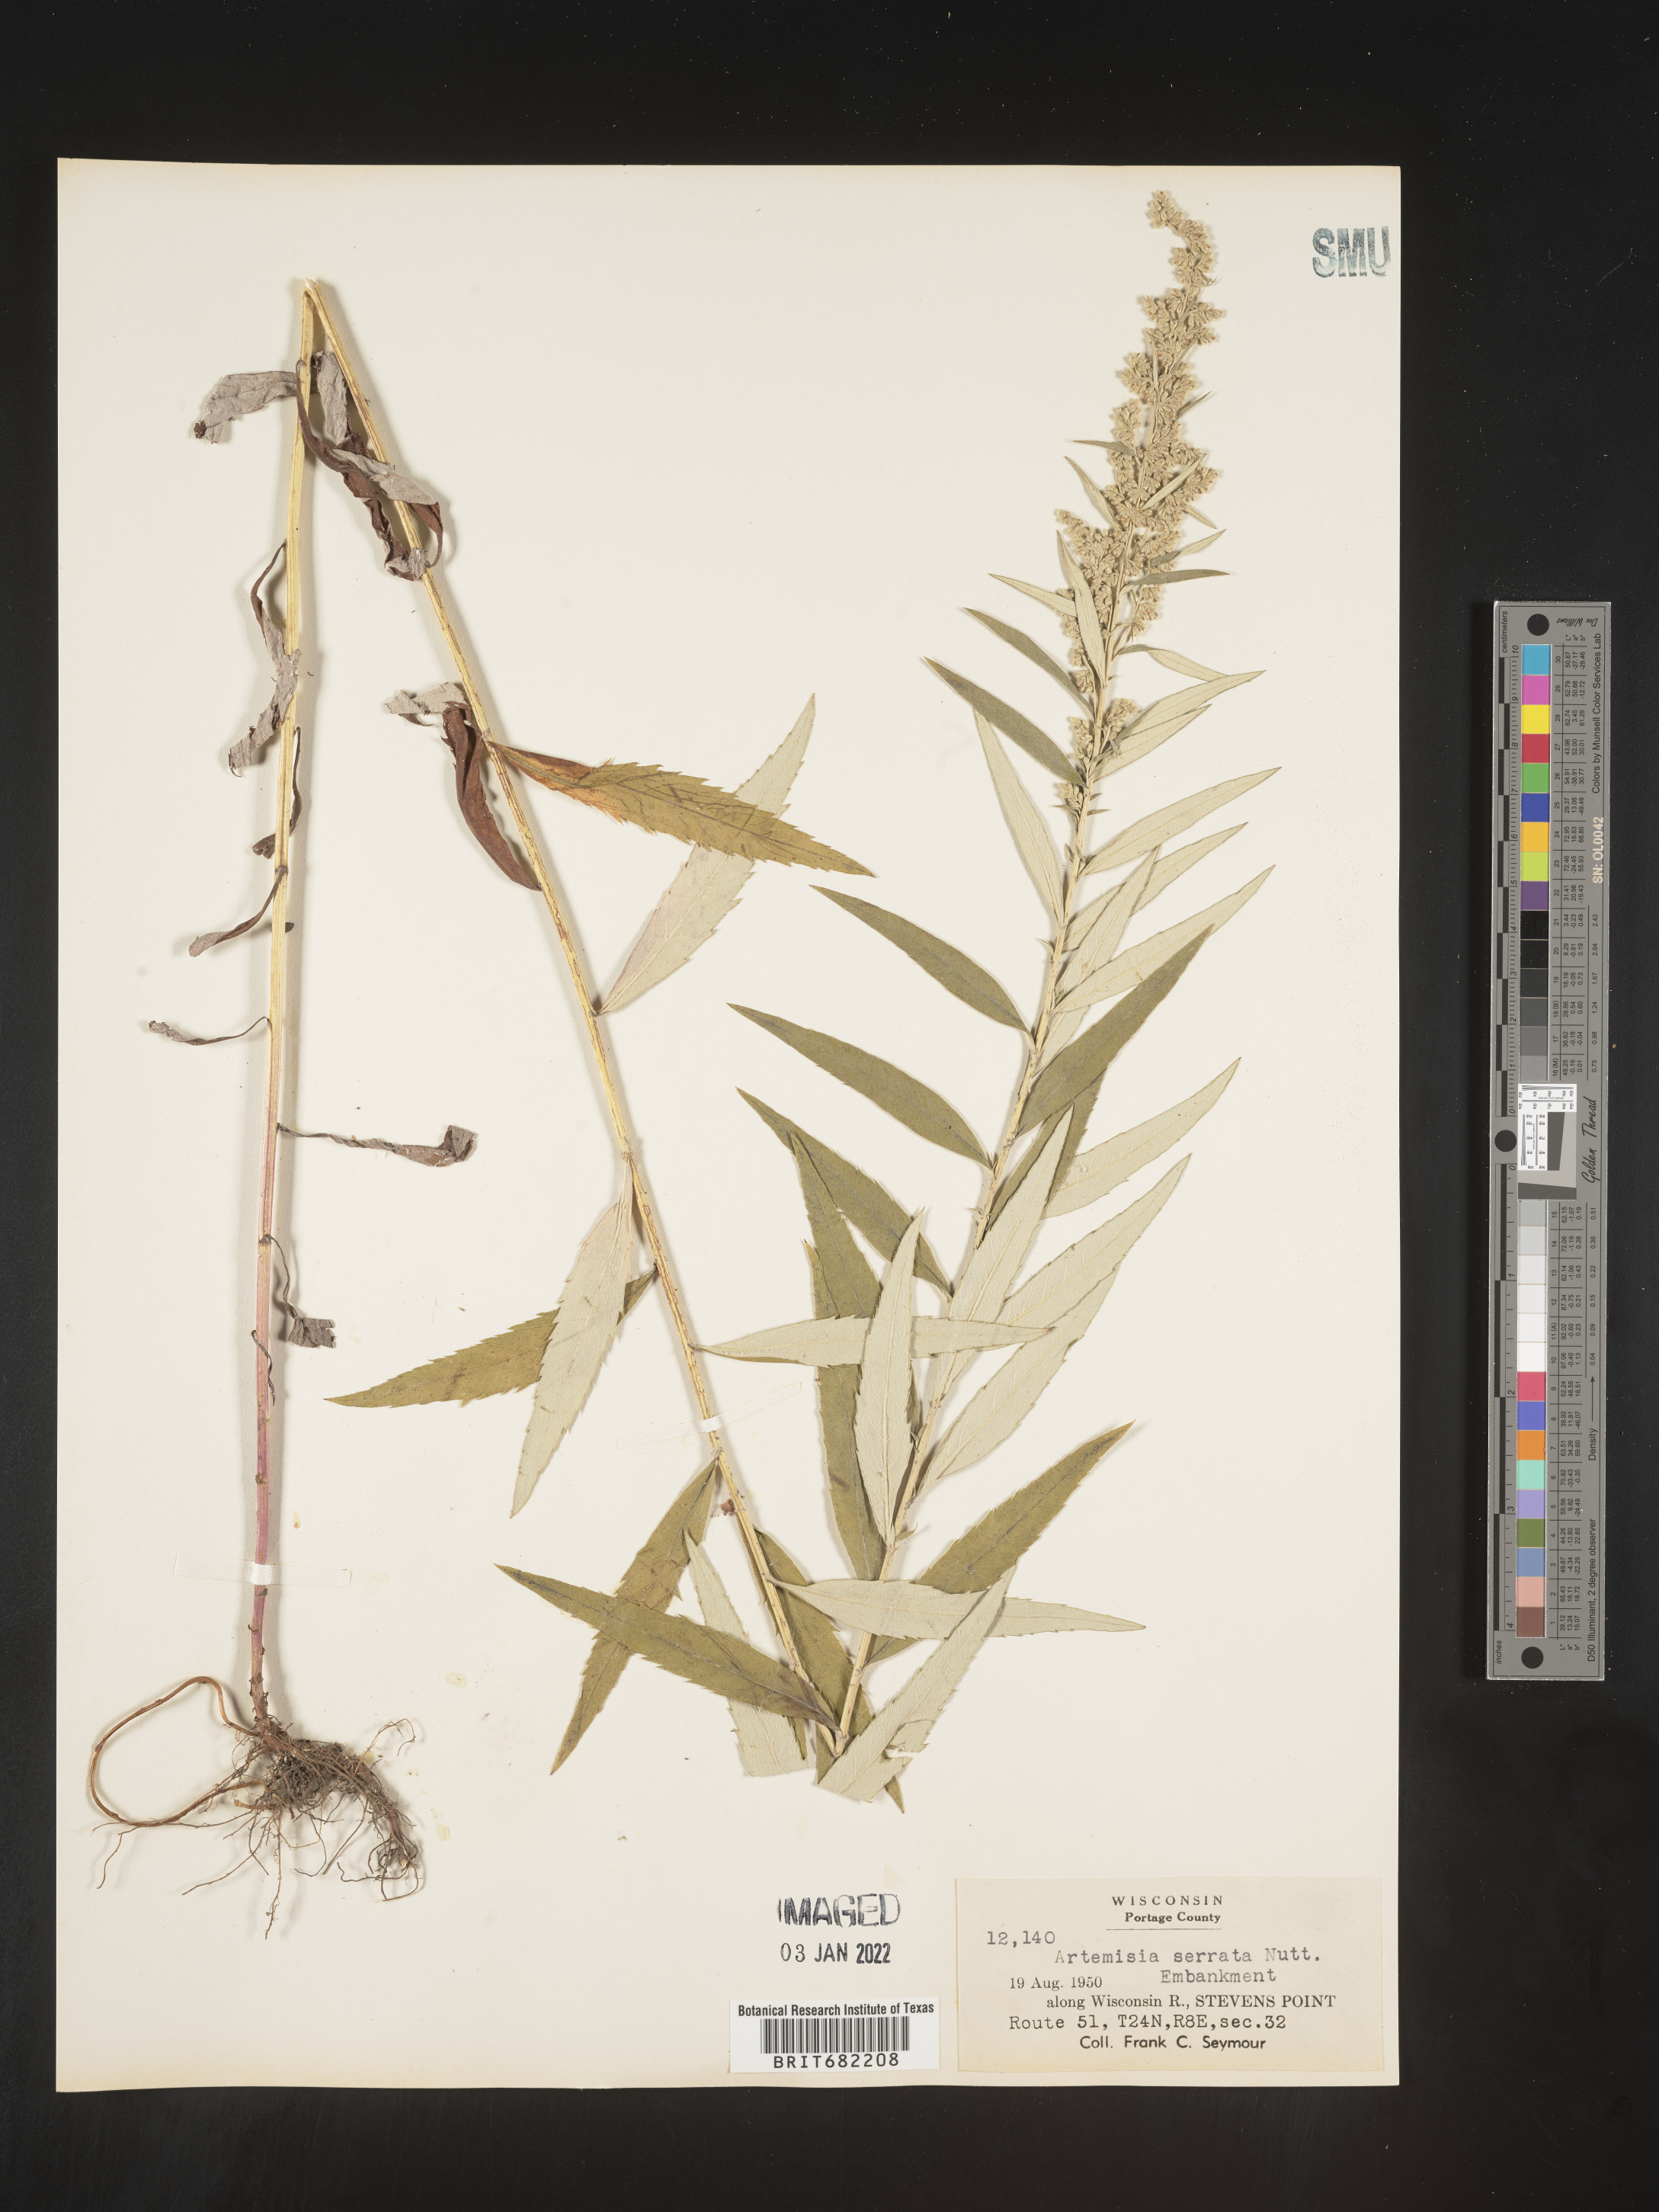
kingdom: Plantae
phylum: Tracheophyta
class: Magnoliopsida
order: Asterales
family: Asteraceae
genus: Artemisia
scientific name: Artemisia serrata
